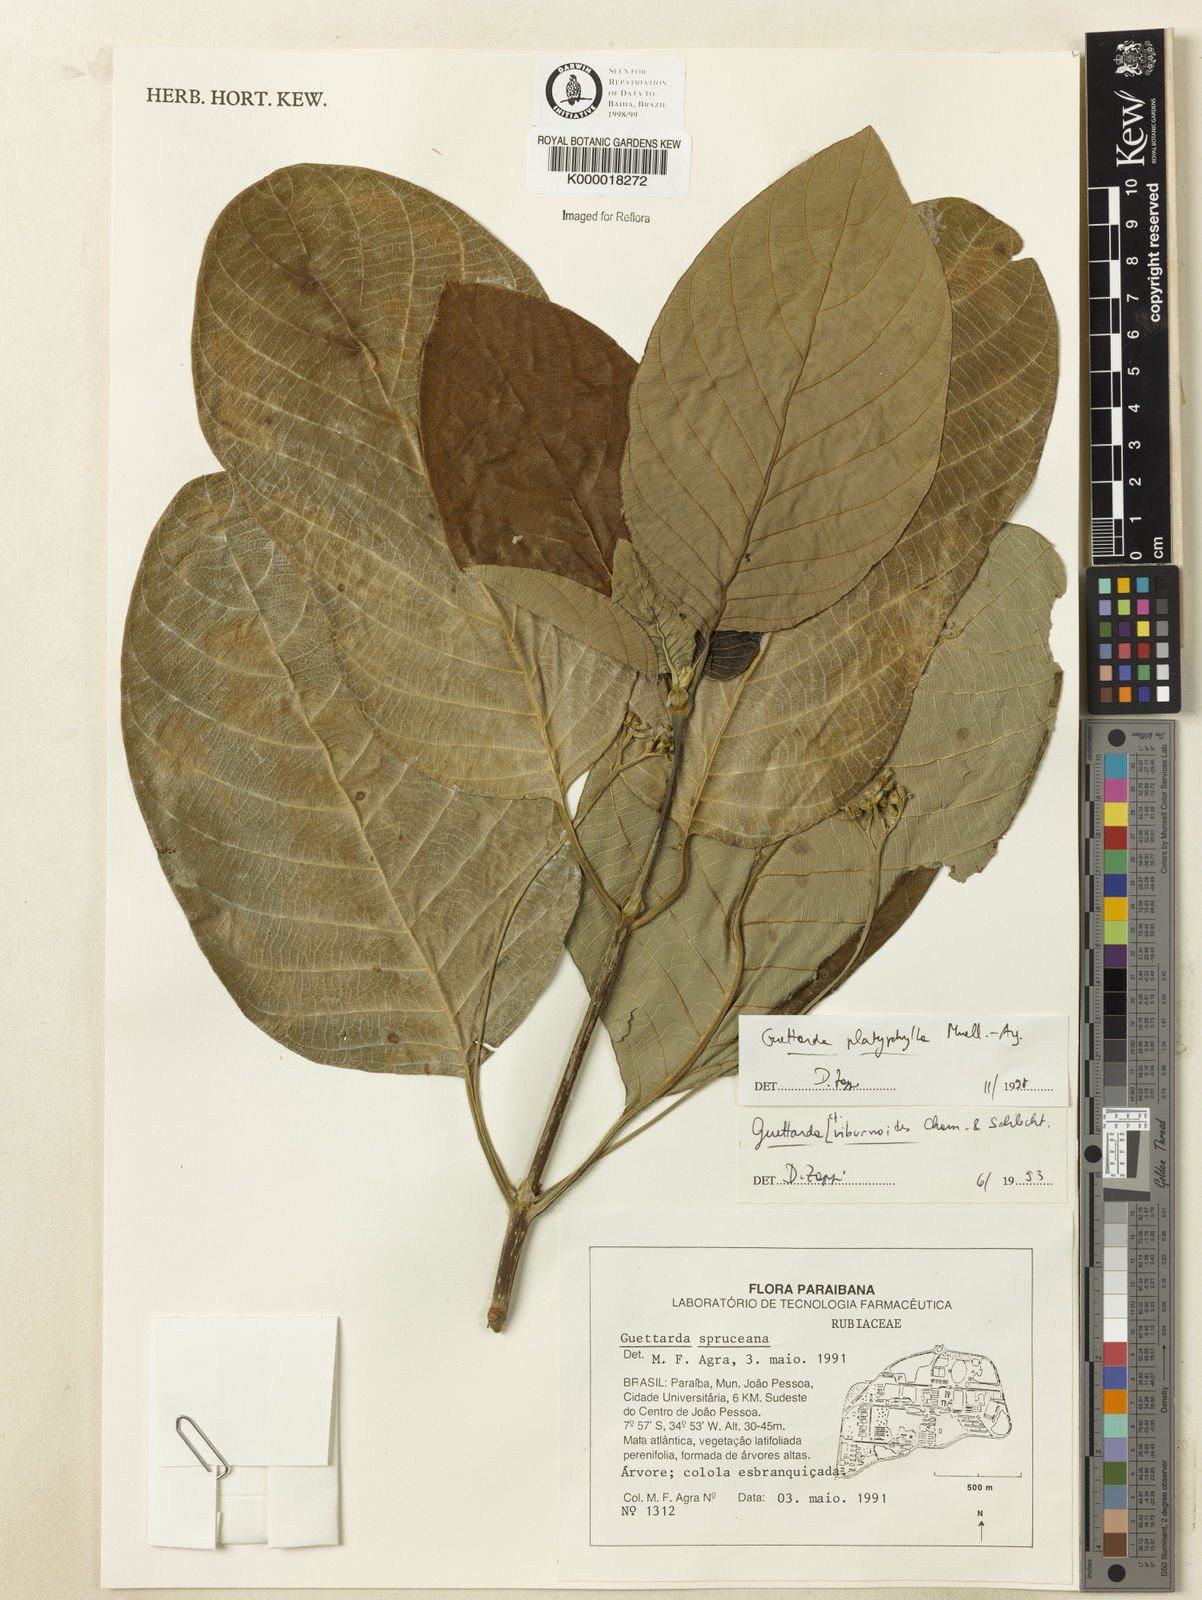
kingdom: Plantae
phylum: Tracheophyta
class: Magnoliopsida
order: Gentianales
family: Rubiaceae
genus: Guettarda
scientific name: Guettarda viburnoides
